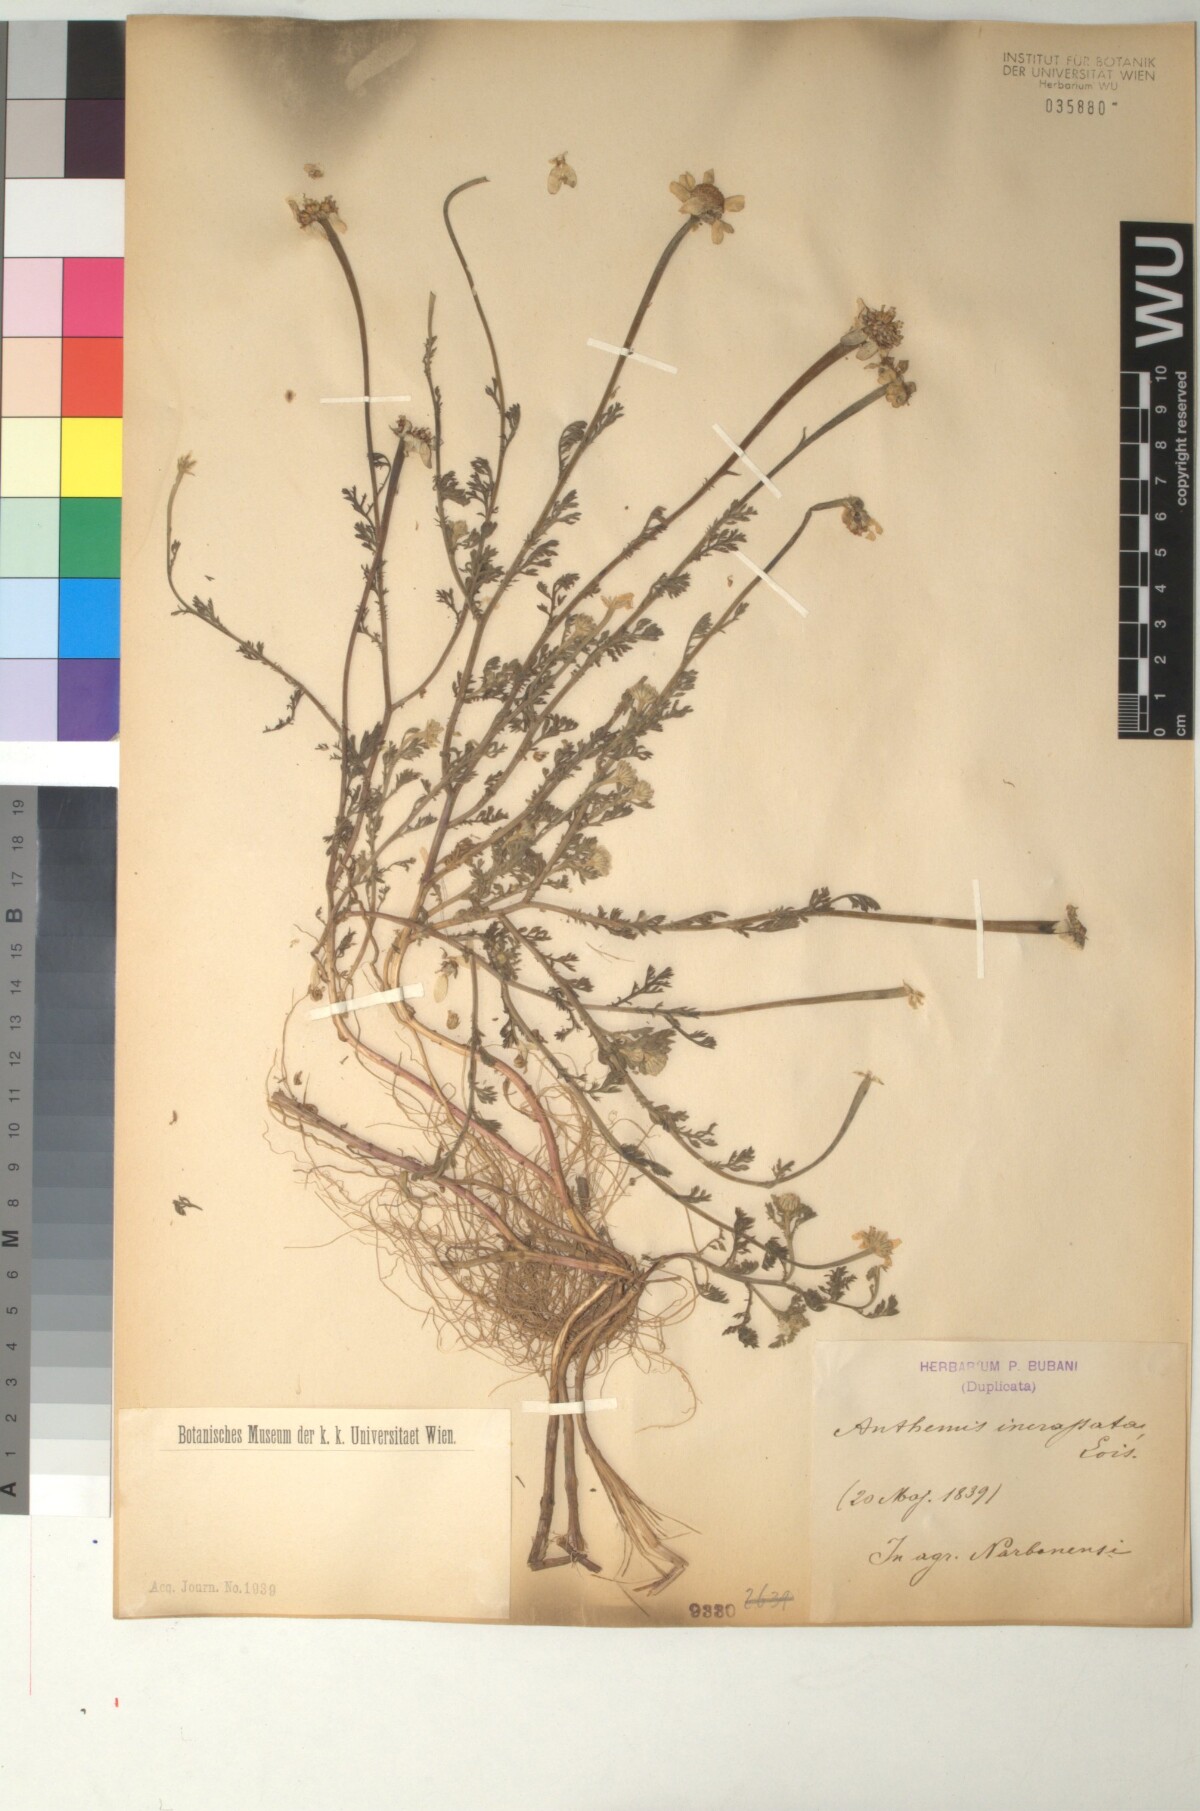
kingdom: Plantae
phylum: Tracheophyta
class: Magnoliopsida
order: Asterales
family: Asteraceae
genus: Anthemis
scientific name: Anthemis arvensis
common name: Corn chamomile
